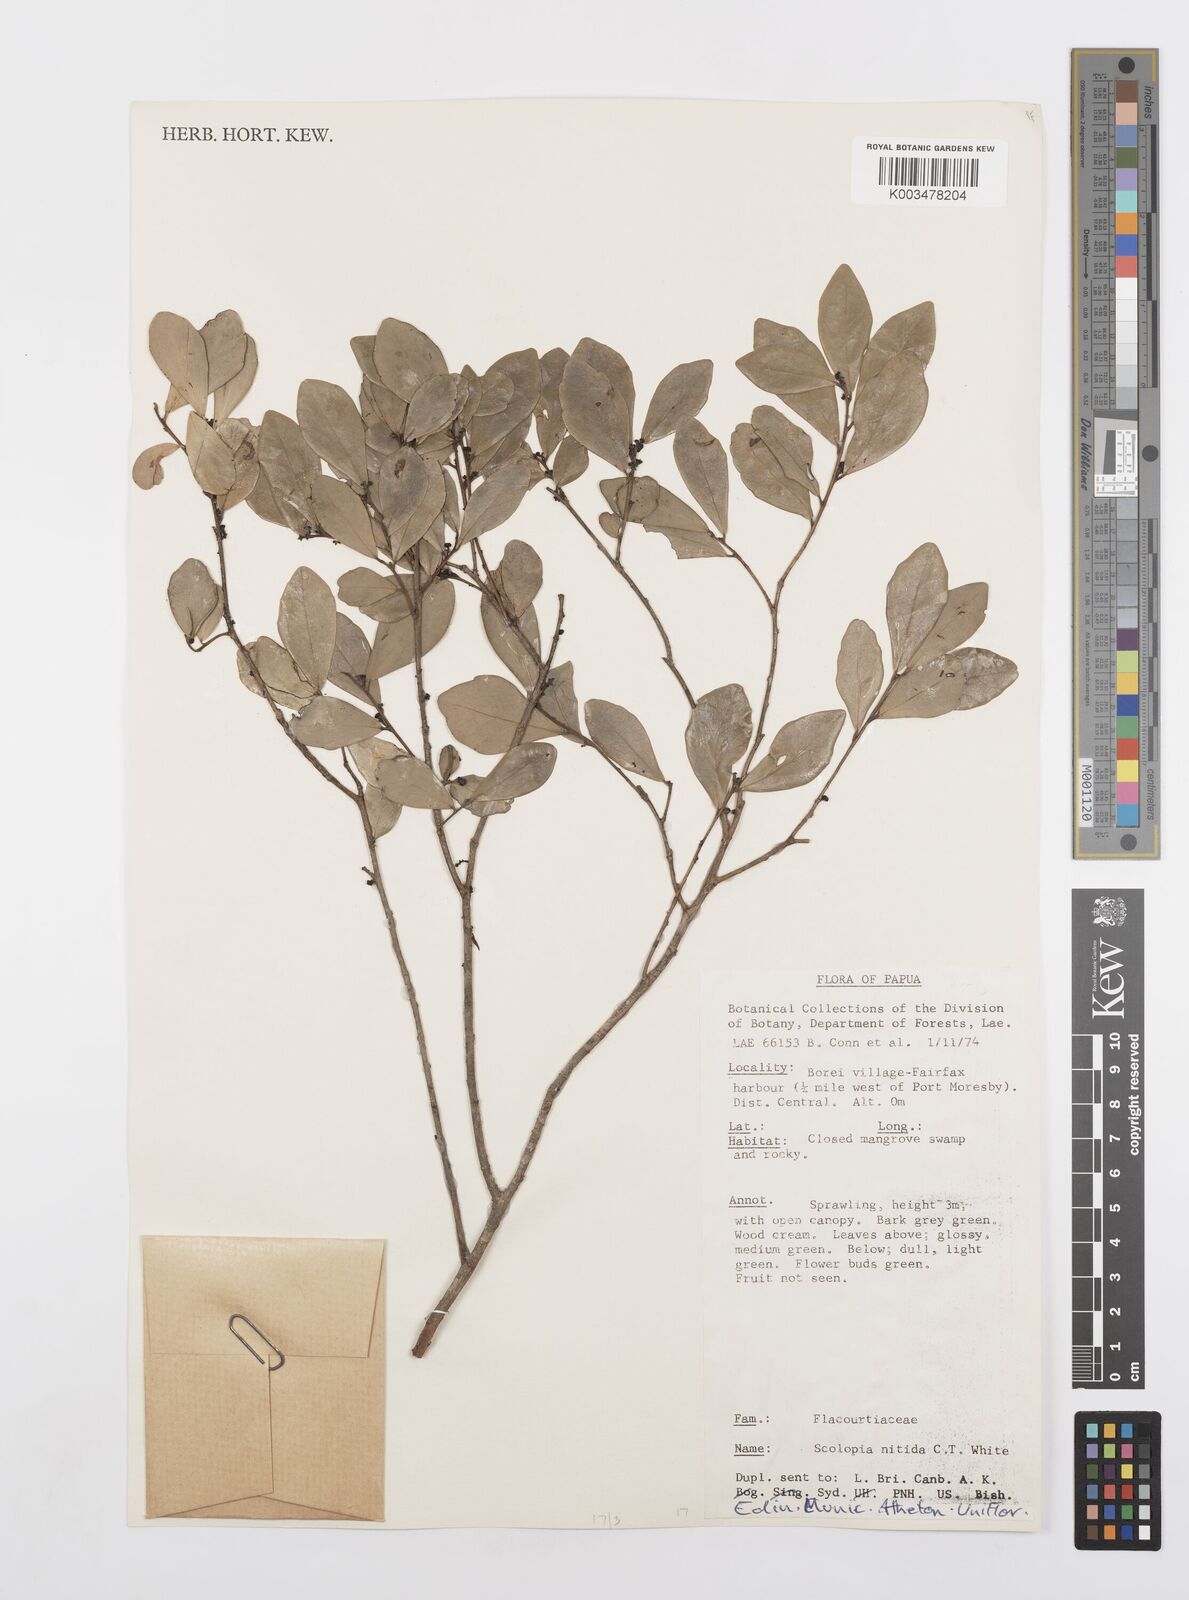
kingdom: Plantae
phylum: Tracheophyta
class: Magnoliopsida
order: Malpighiales
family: Salicaceae
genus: Scolopia
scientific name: Scolopia nitida
